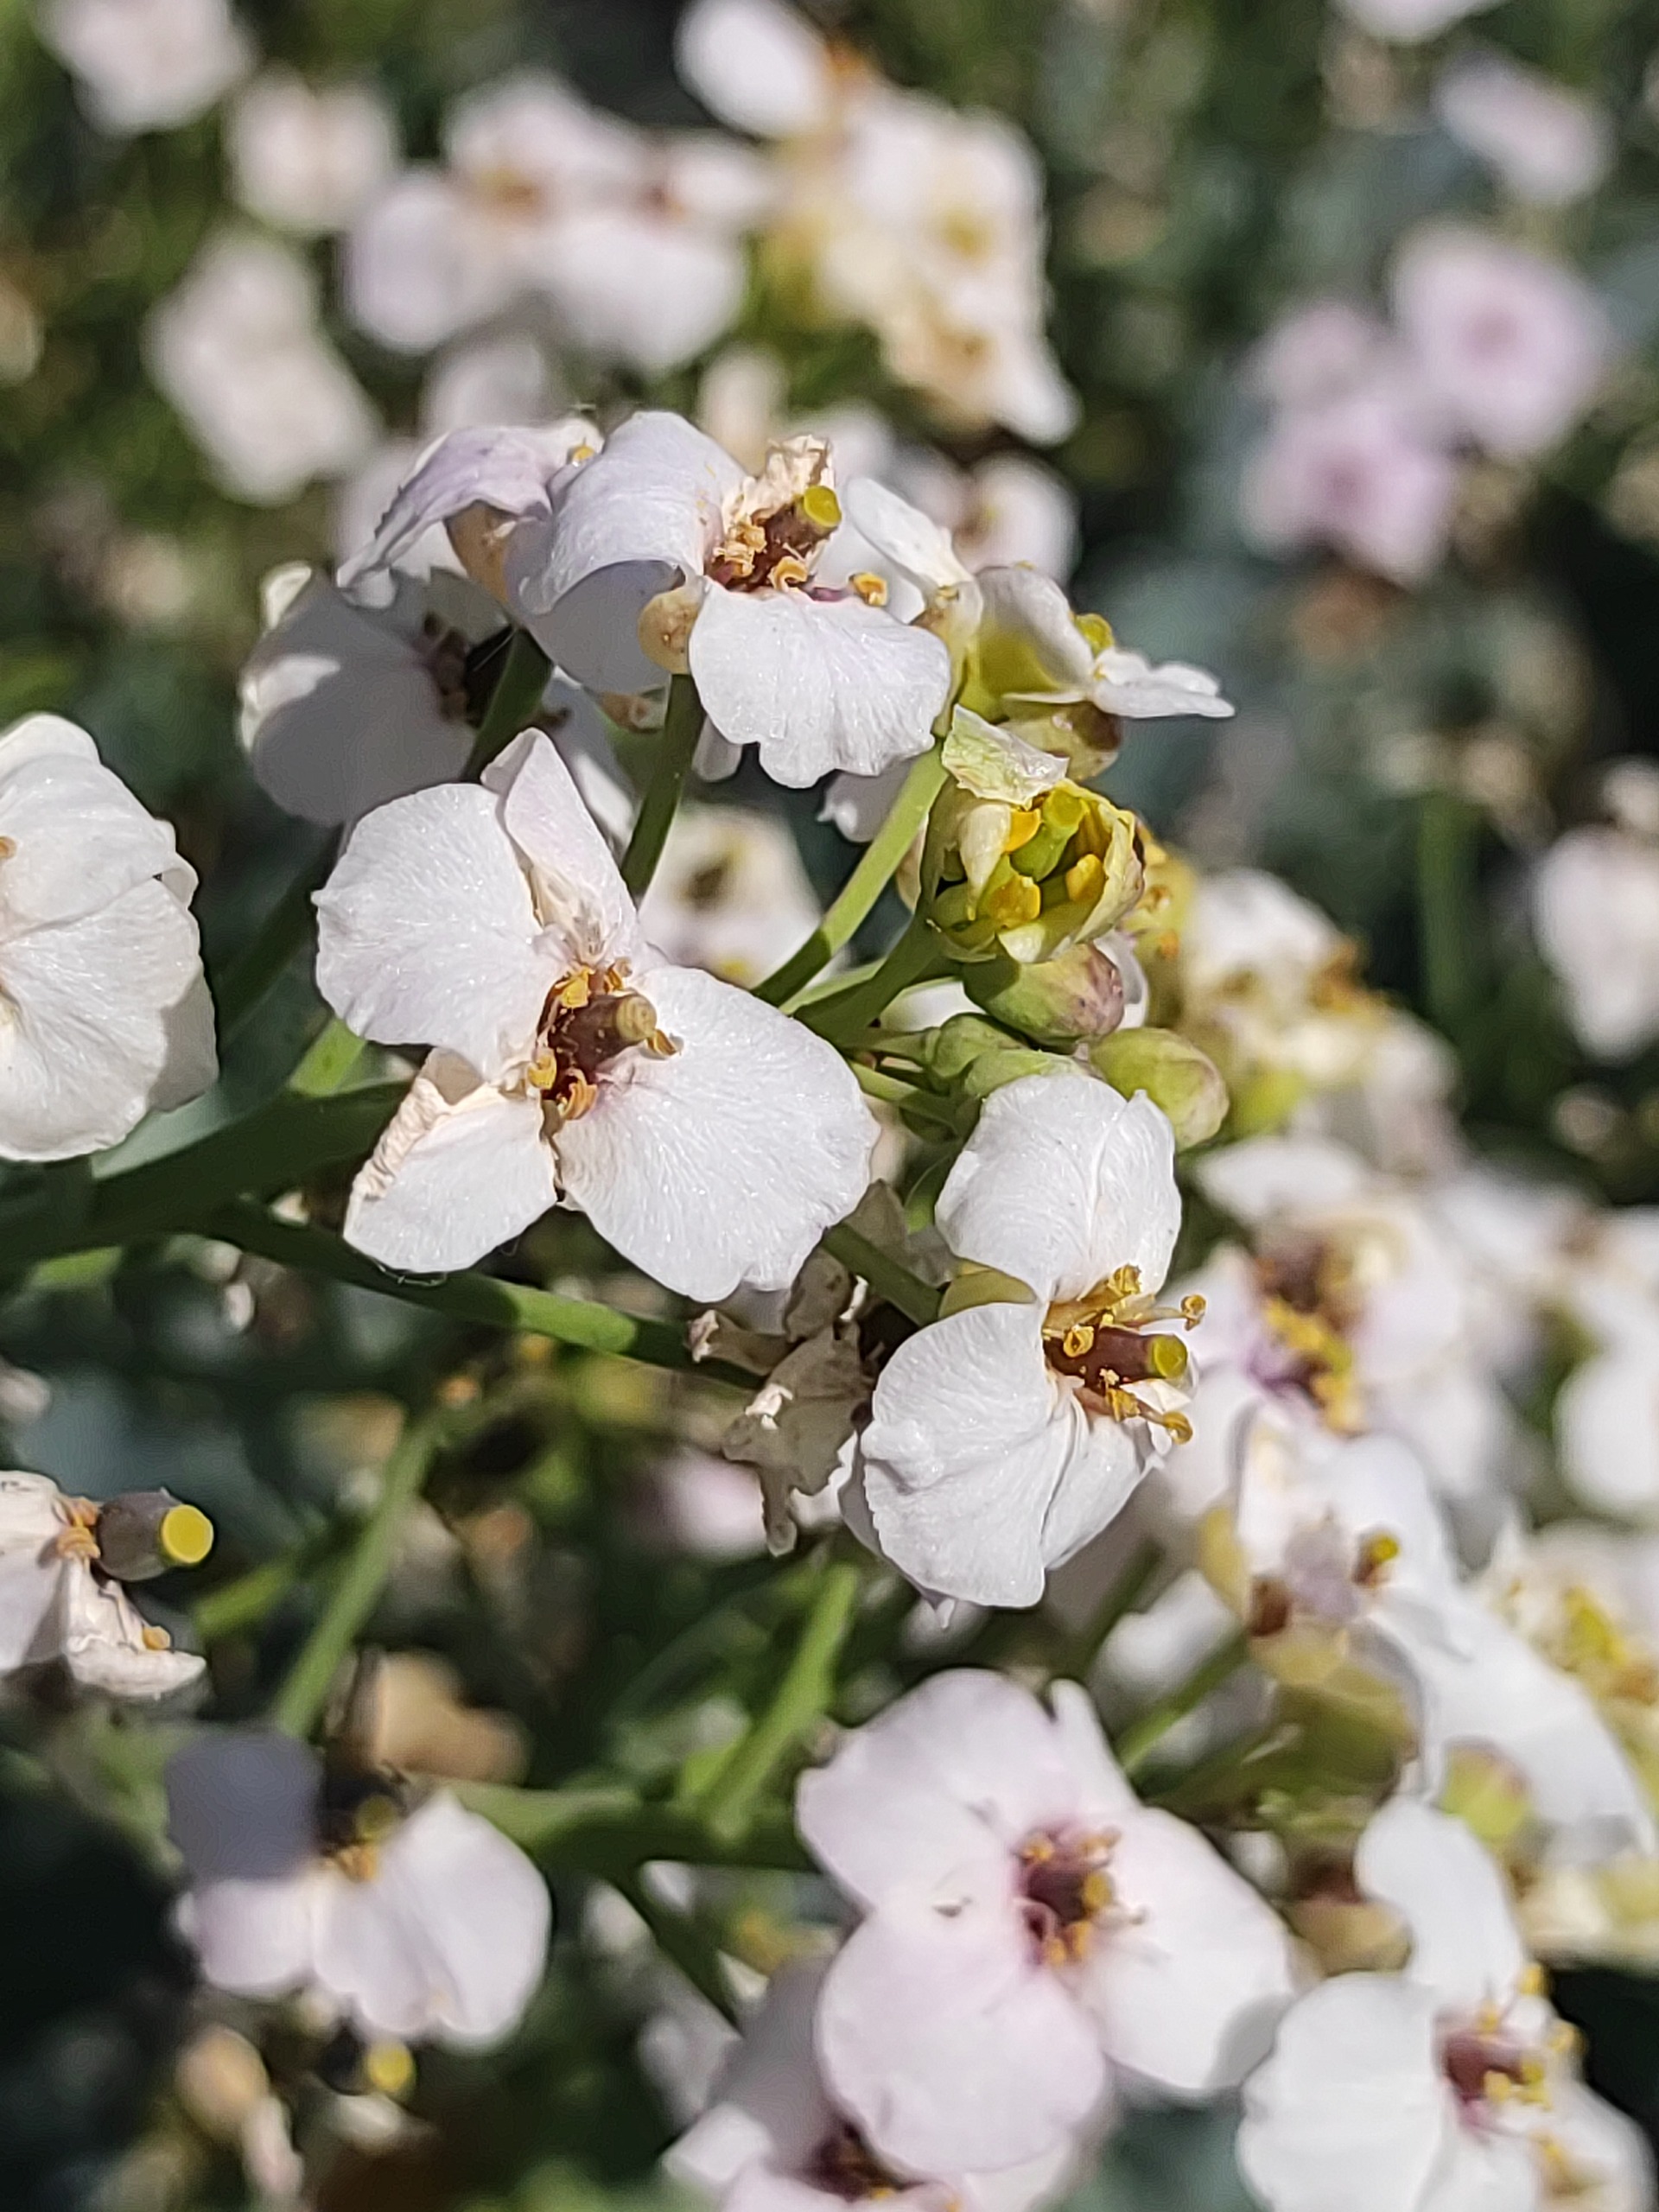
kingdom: Plantae
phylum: Tracheophyta
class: Magnoliopsida
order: Brassicales
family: Brassicaceae
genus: Crambe
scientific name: Crambe maritima
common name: Strandkål
